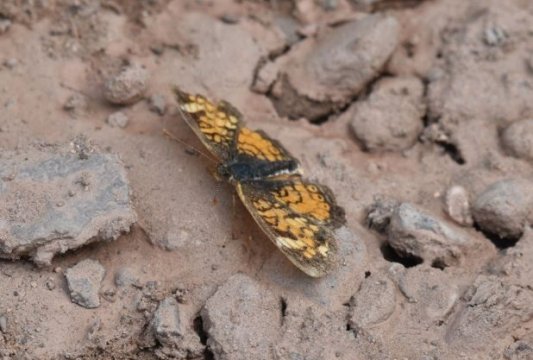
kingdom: Animalia
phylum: Arthropoda
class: Insecta
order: Lepidoptera
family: Nymphalidae
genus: Phyciodes
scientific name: Phyciodes tharos
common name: Northern Crescent
